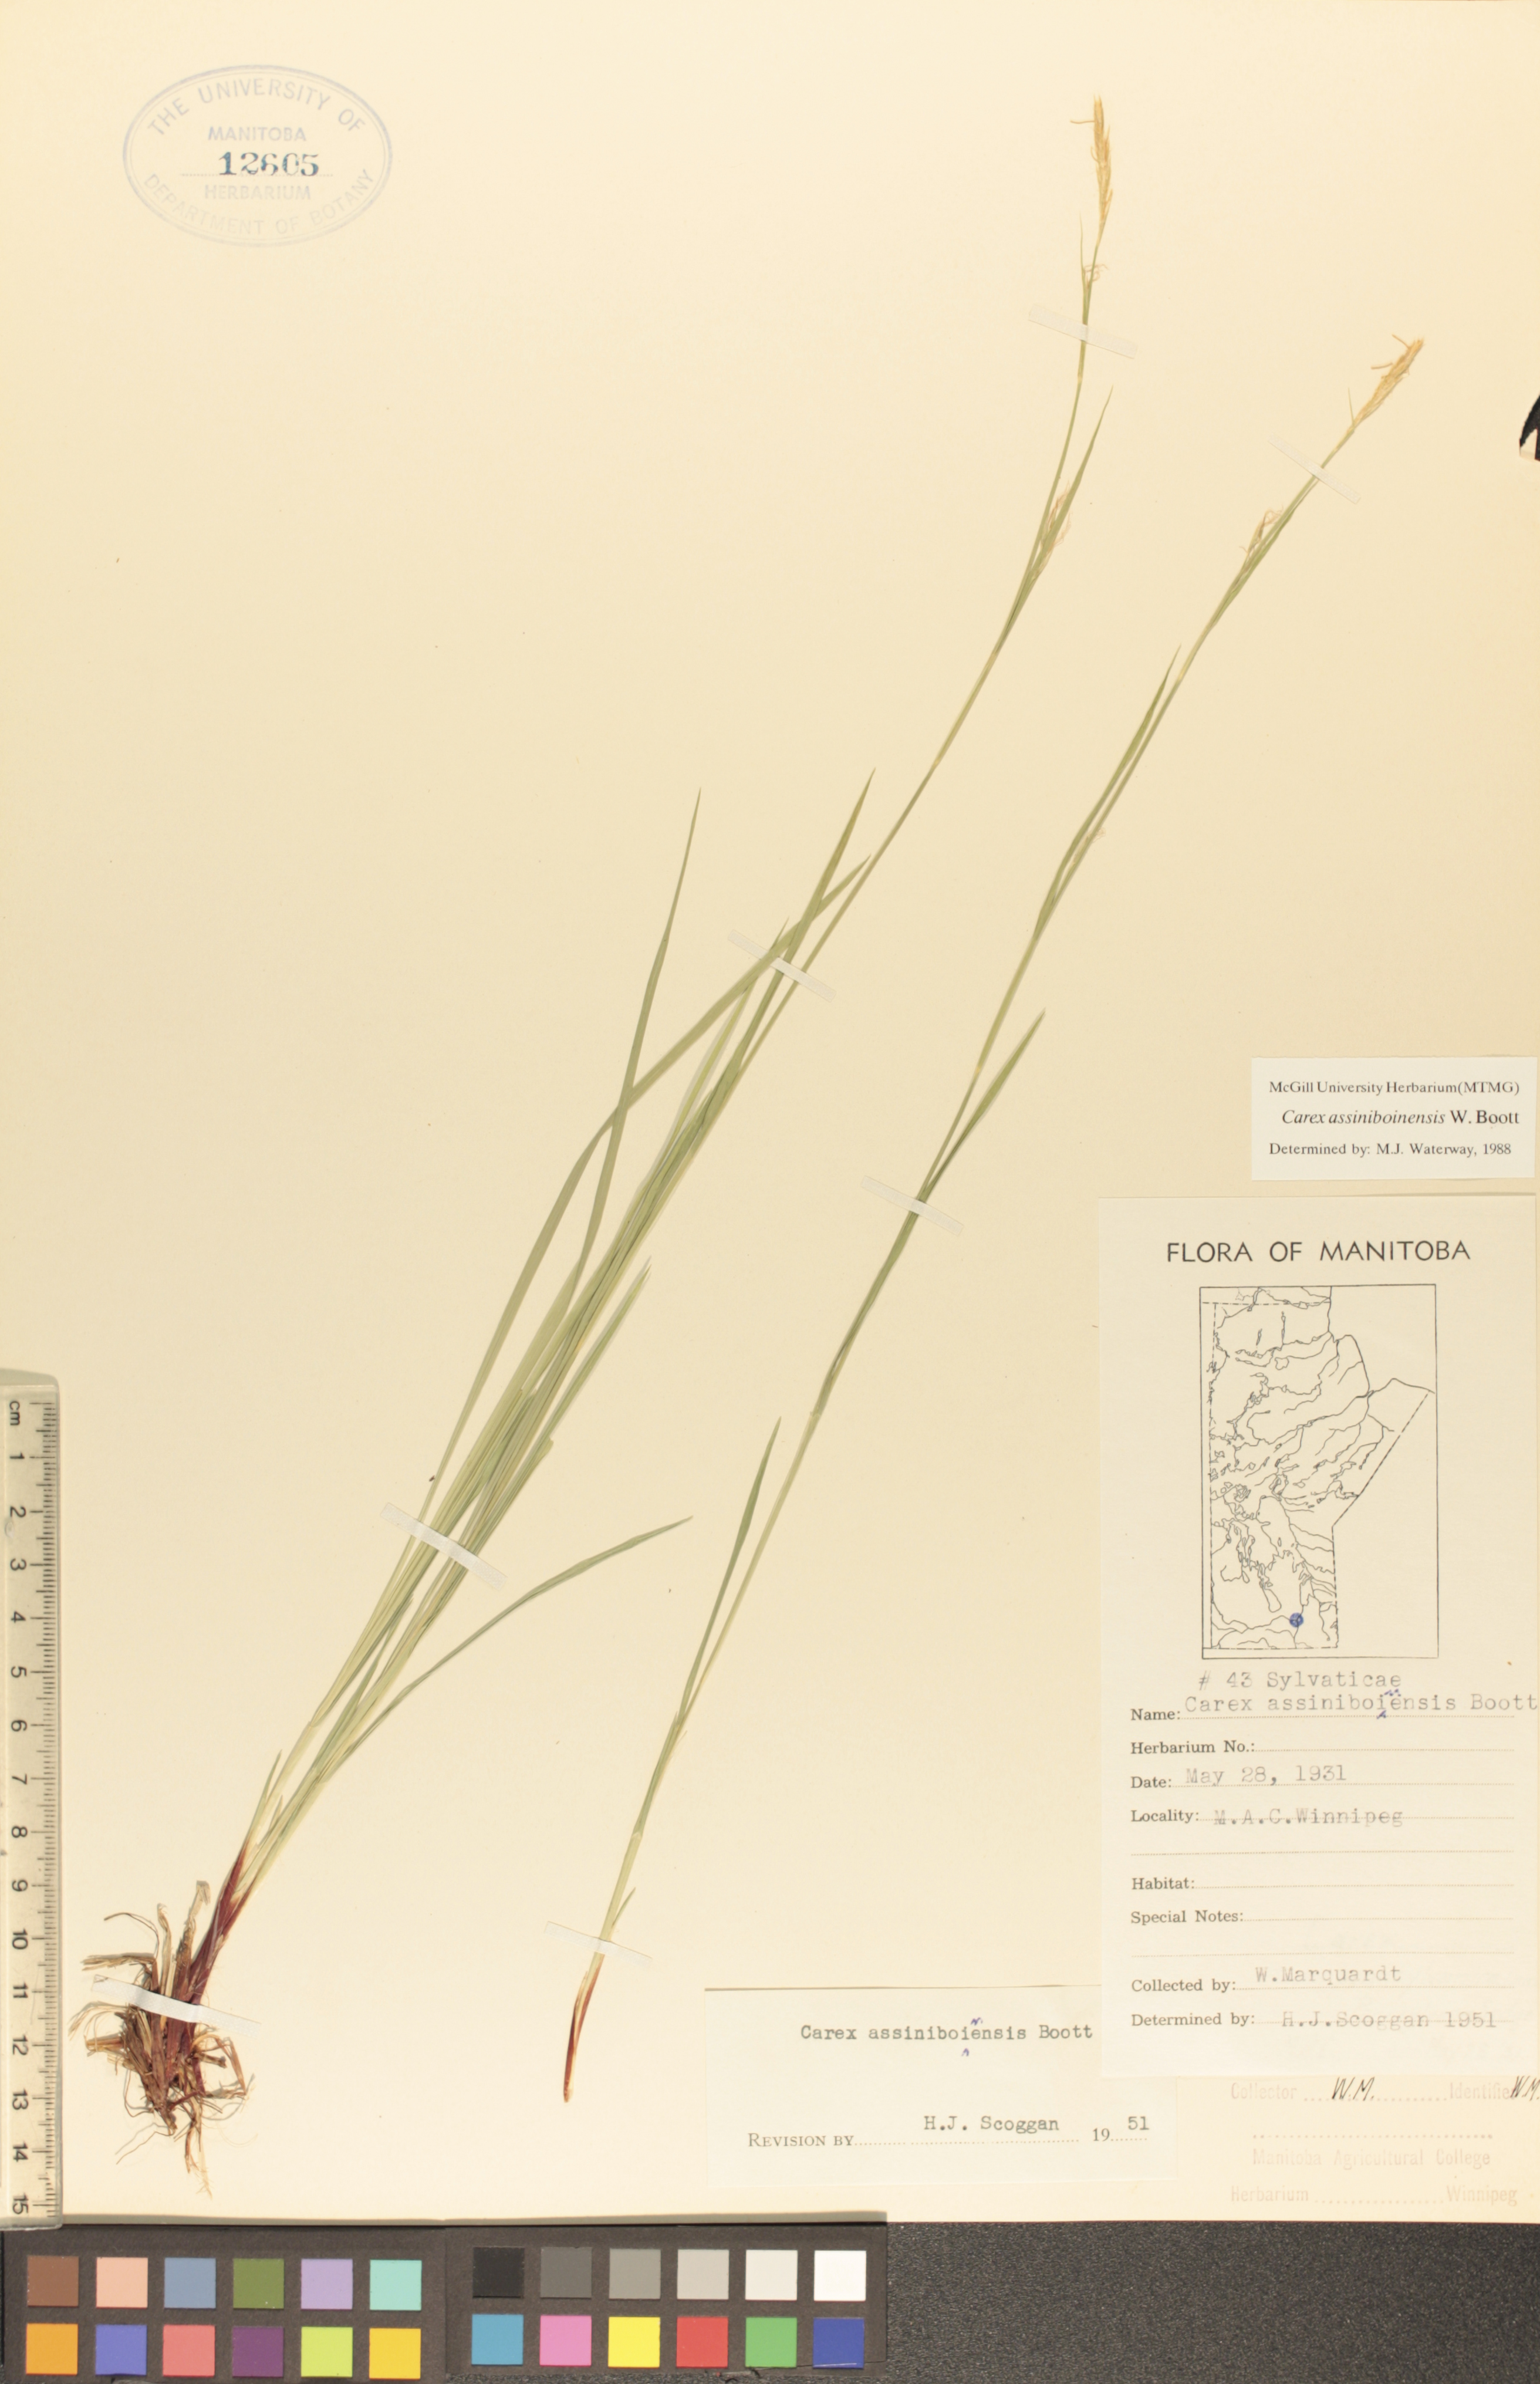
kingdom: Plantae
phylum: Tracheophyta
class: Liliopsida
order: Poales
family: Cyperaceae
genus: Carex
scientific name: Carex assiniboinensis
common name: Assiniboia sedge
